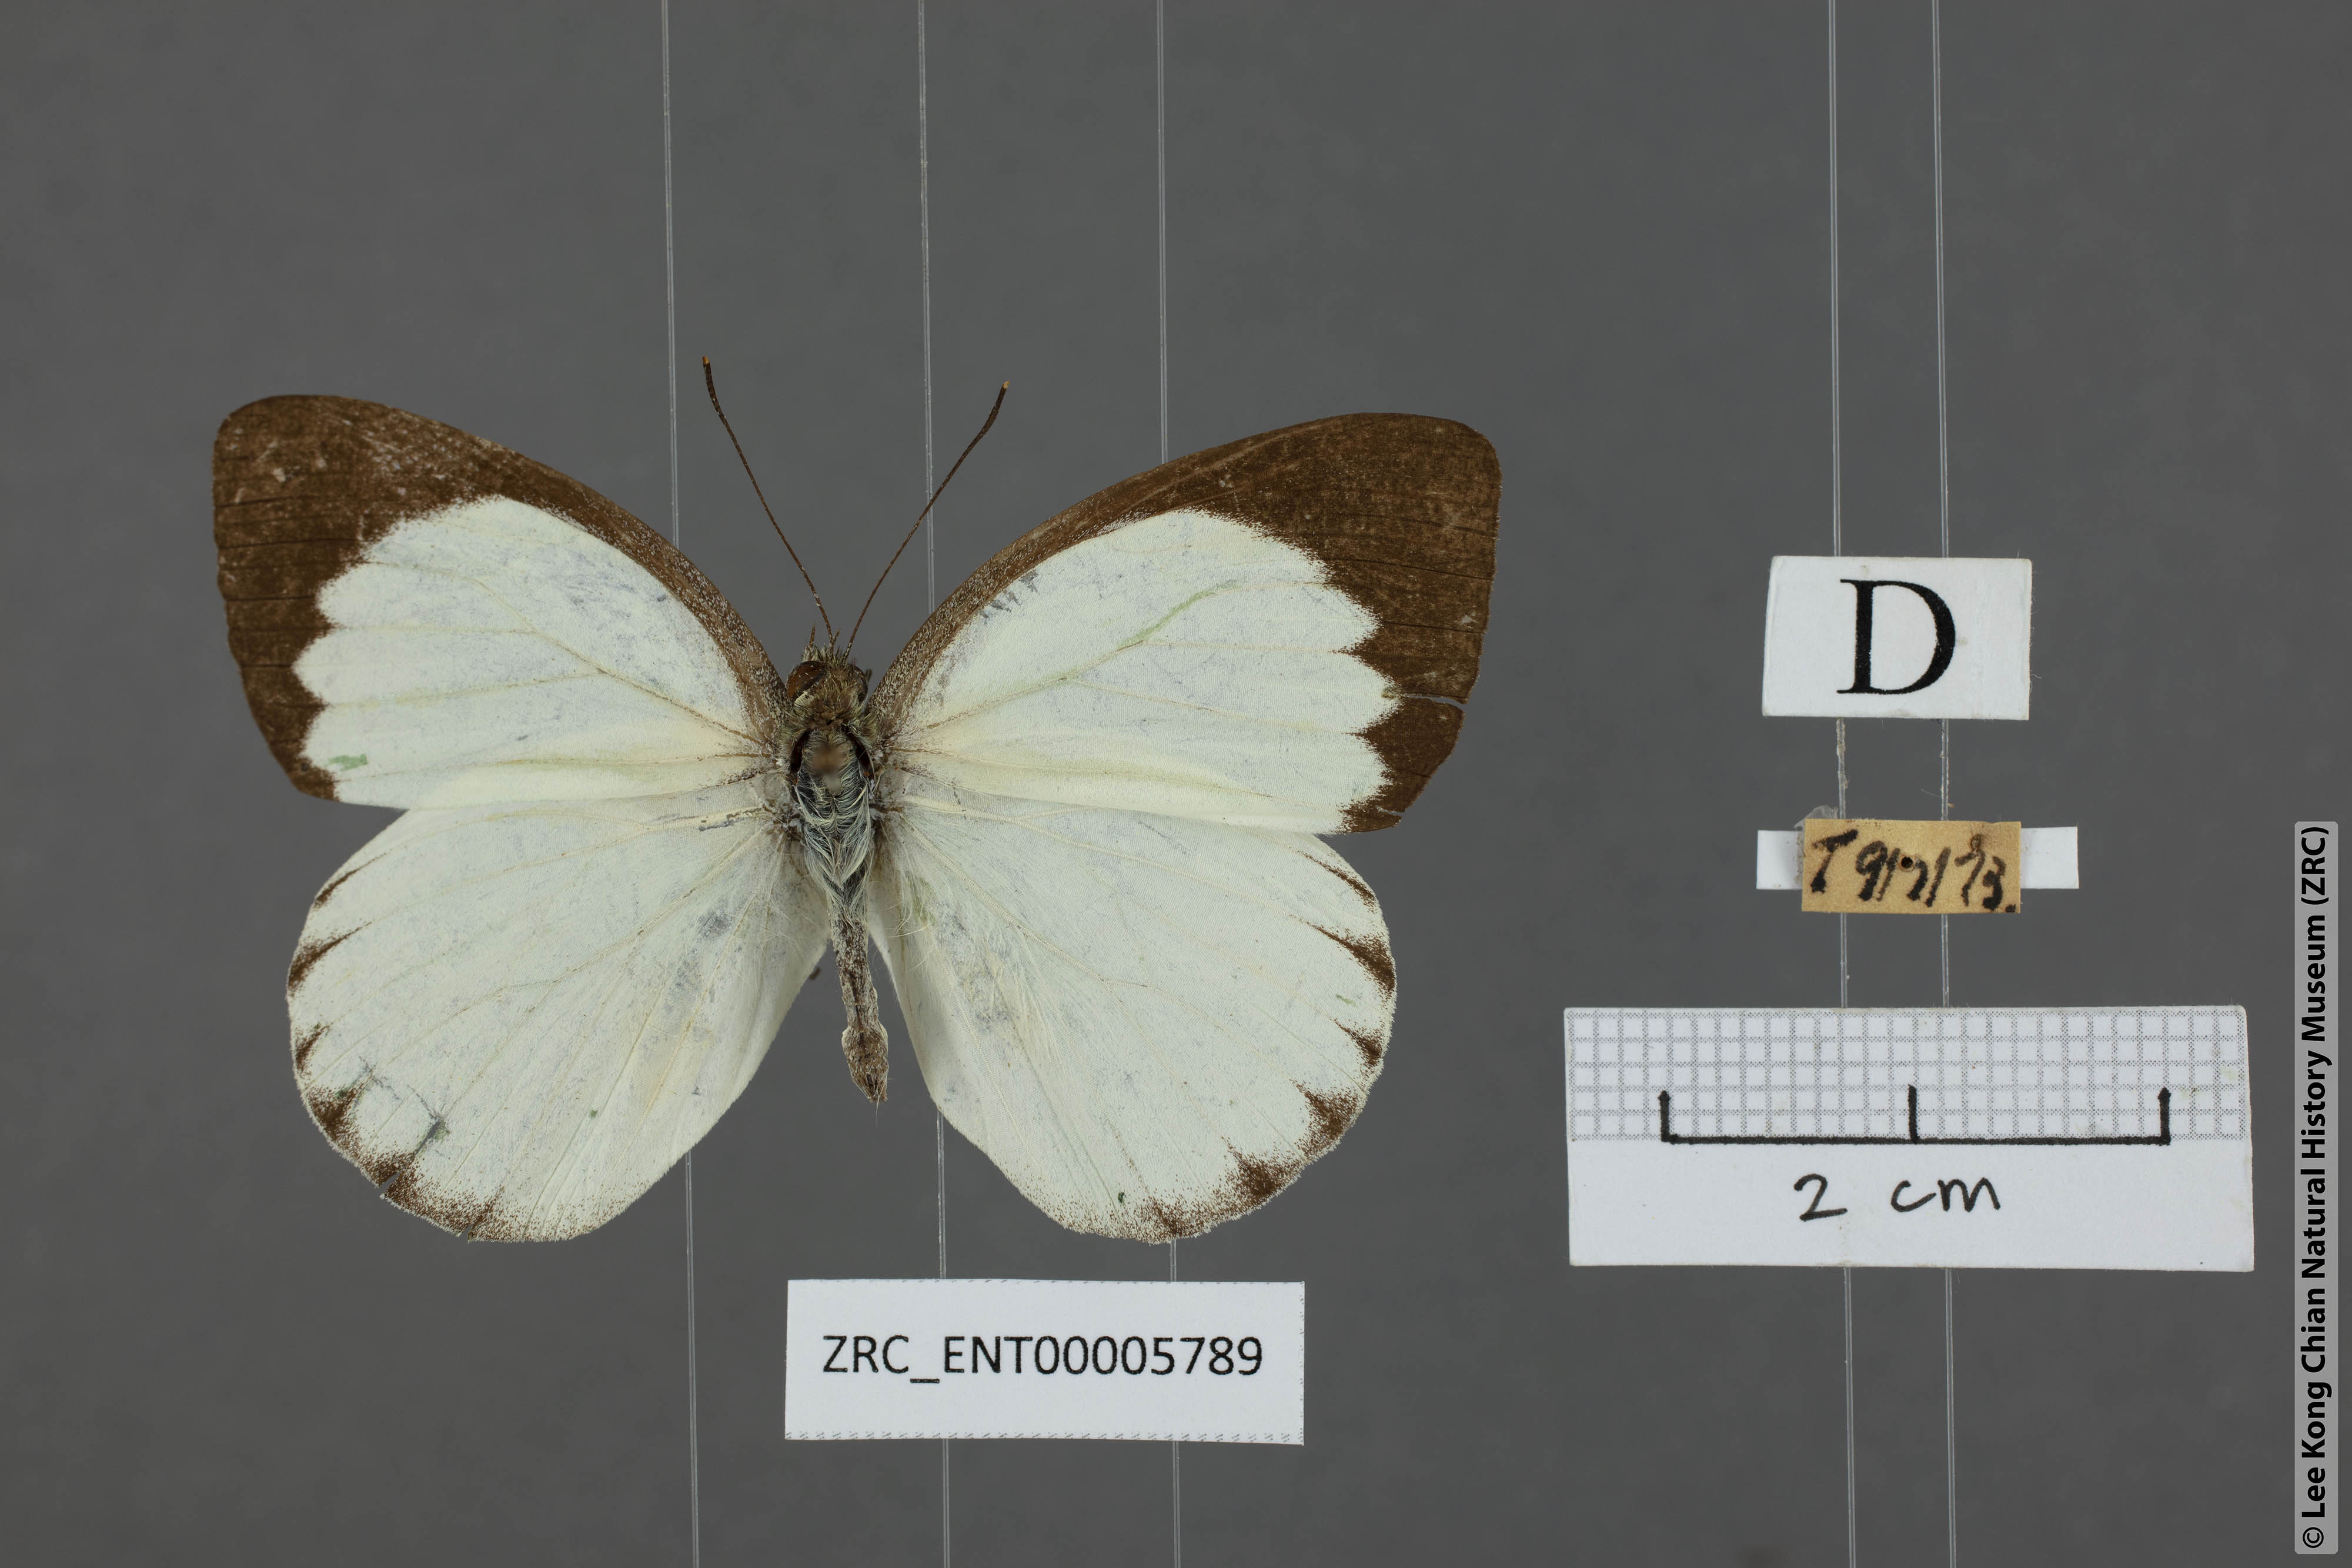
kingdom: Animalia
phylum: Arthropoda
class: Insecta
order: Lepidoptera
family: Pieridae
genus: Phrissura
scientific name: Phrissura aegis
